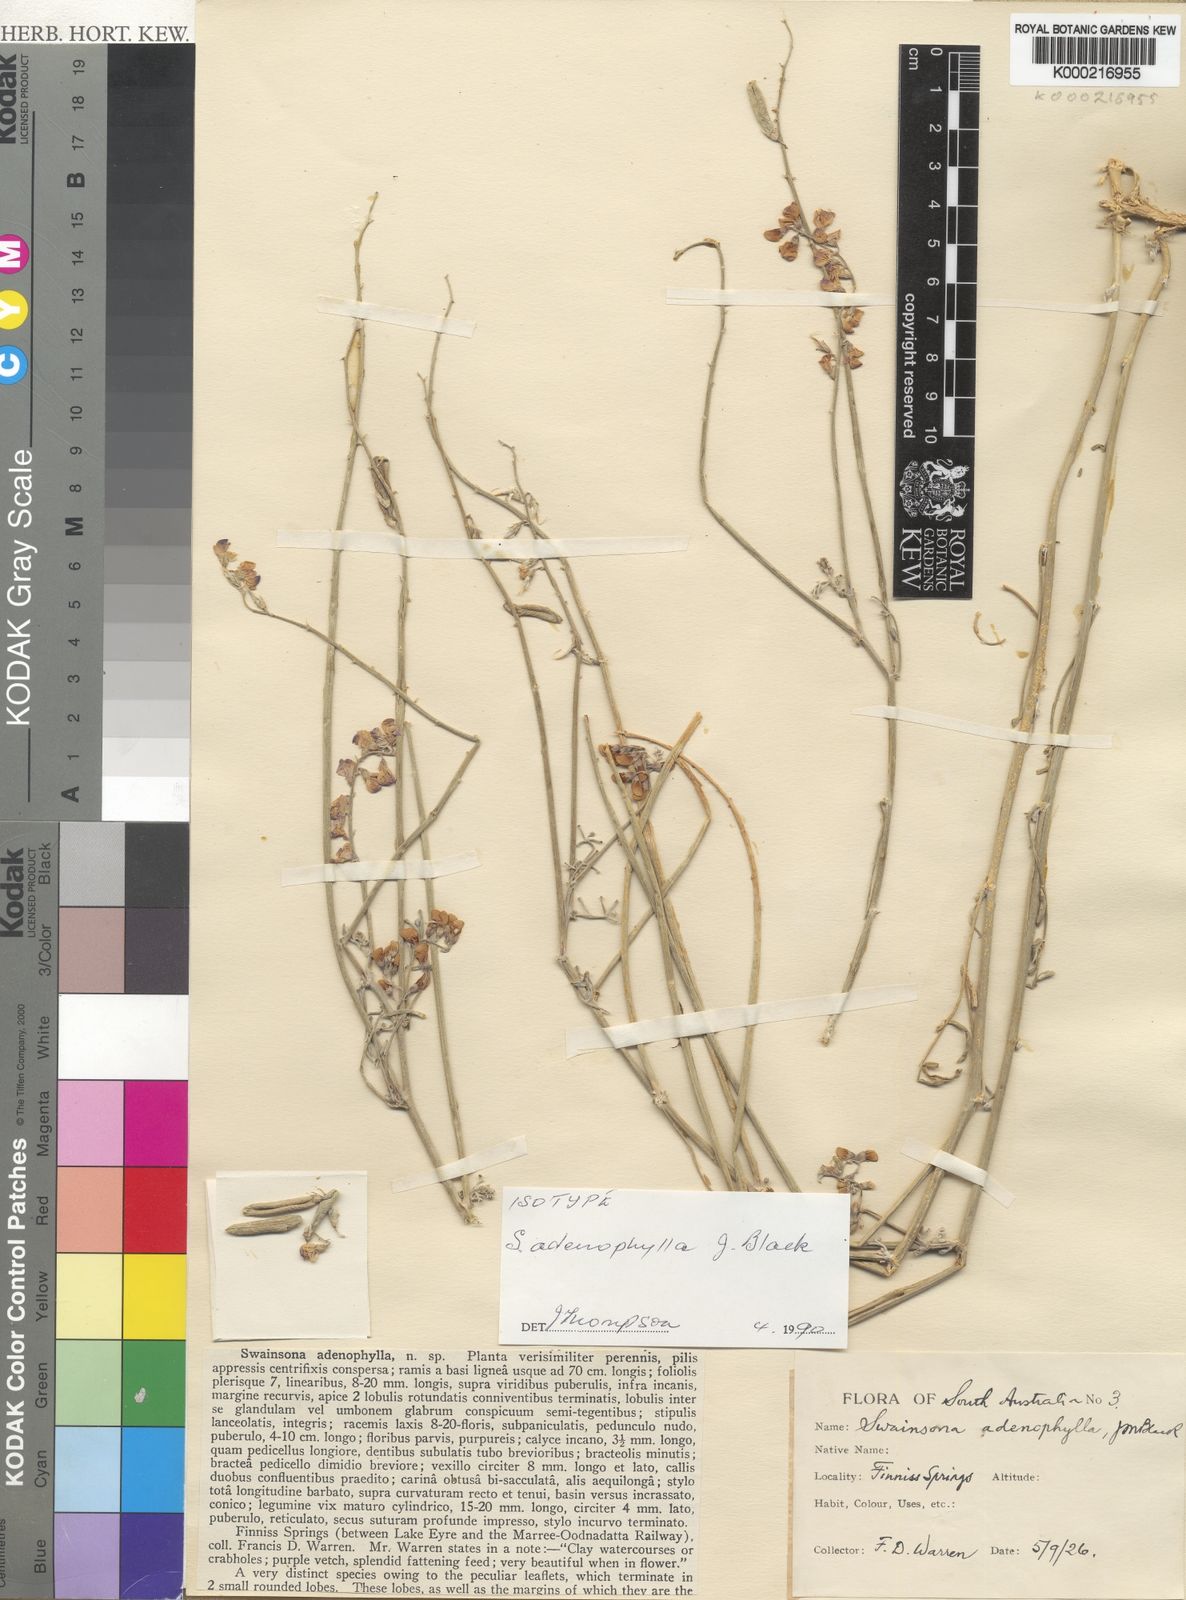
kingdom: Plantae
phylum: Tracheophyta
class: Magnoliopsida
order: Fabales
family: Fabaceae
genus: Swainsona
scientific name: Swainsona adenophylla
